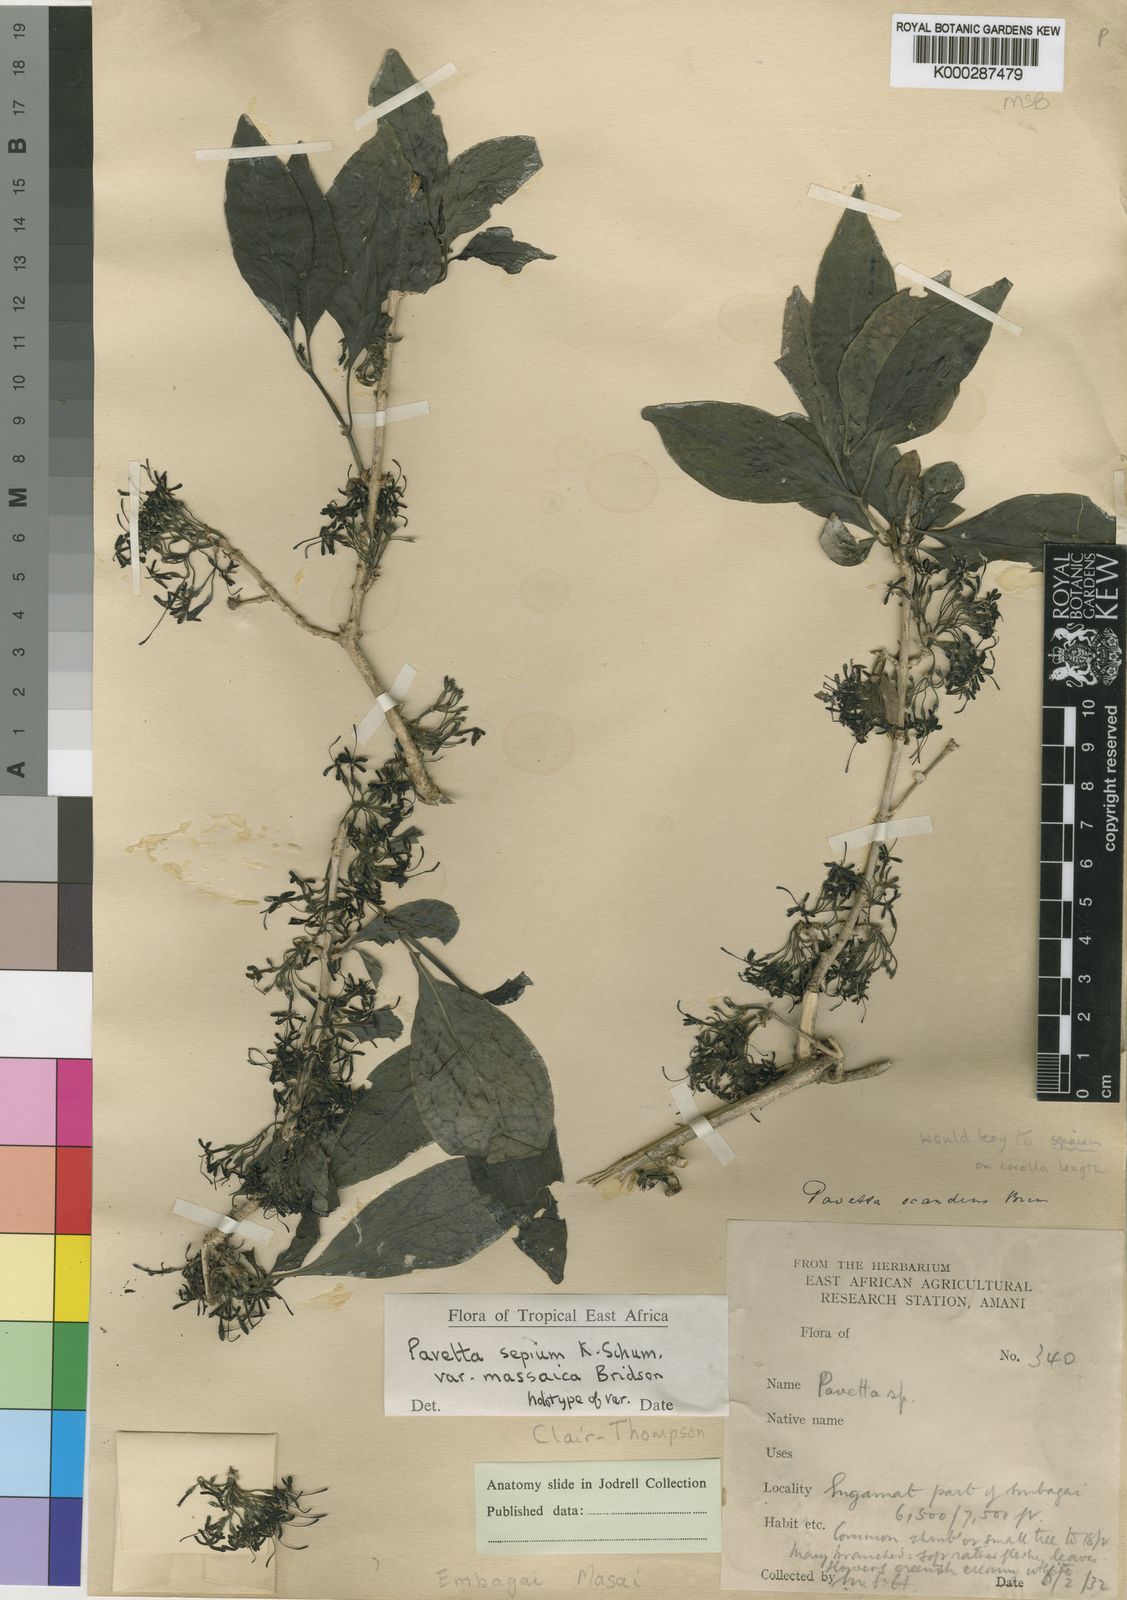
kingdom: Plantae
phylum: Tracheophyta
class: Magnoliopsida
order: Gentianales
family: Rubiaceae
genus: Pavetta
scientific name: Pavetta sepium
